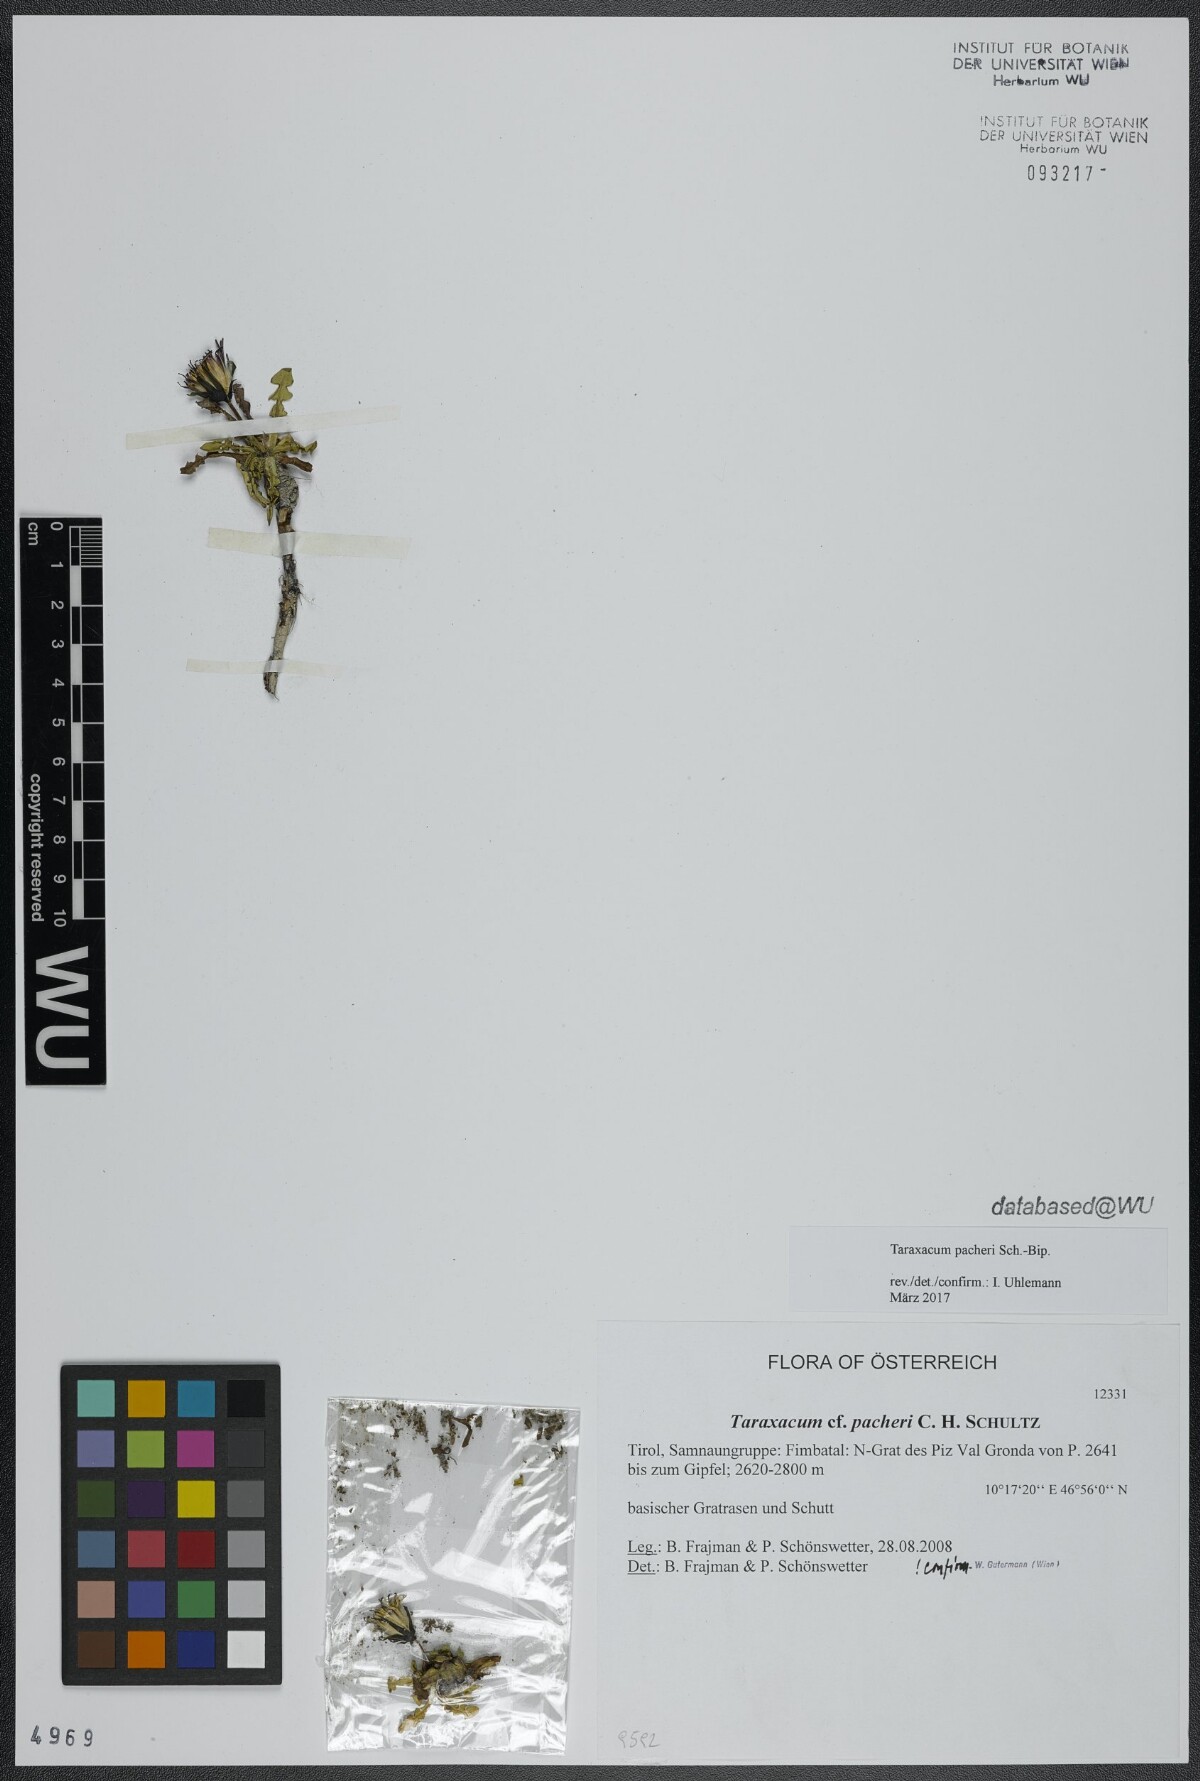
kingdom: Plantae
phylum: Tracheophyta
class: Magnoliopsida
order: Asterales
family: Asteraceae
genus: Taraxacum
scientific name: Taraxacum pacheri
